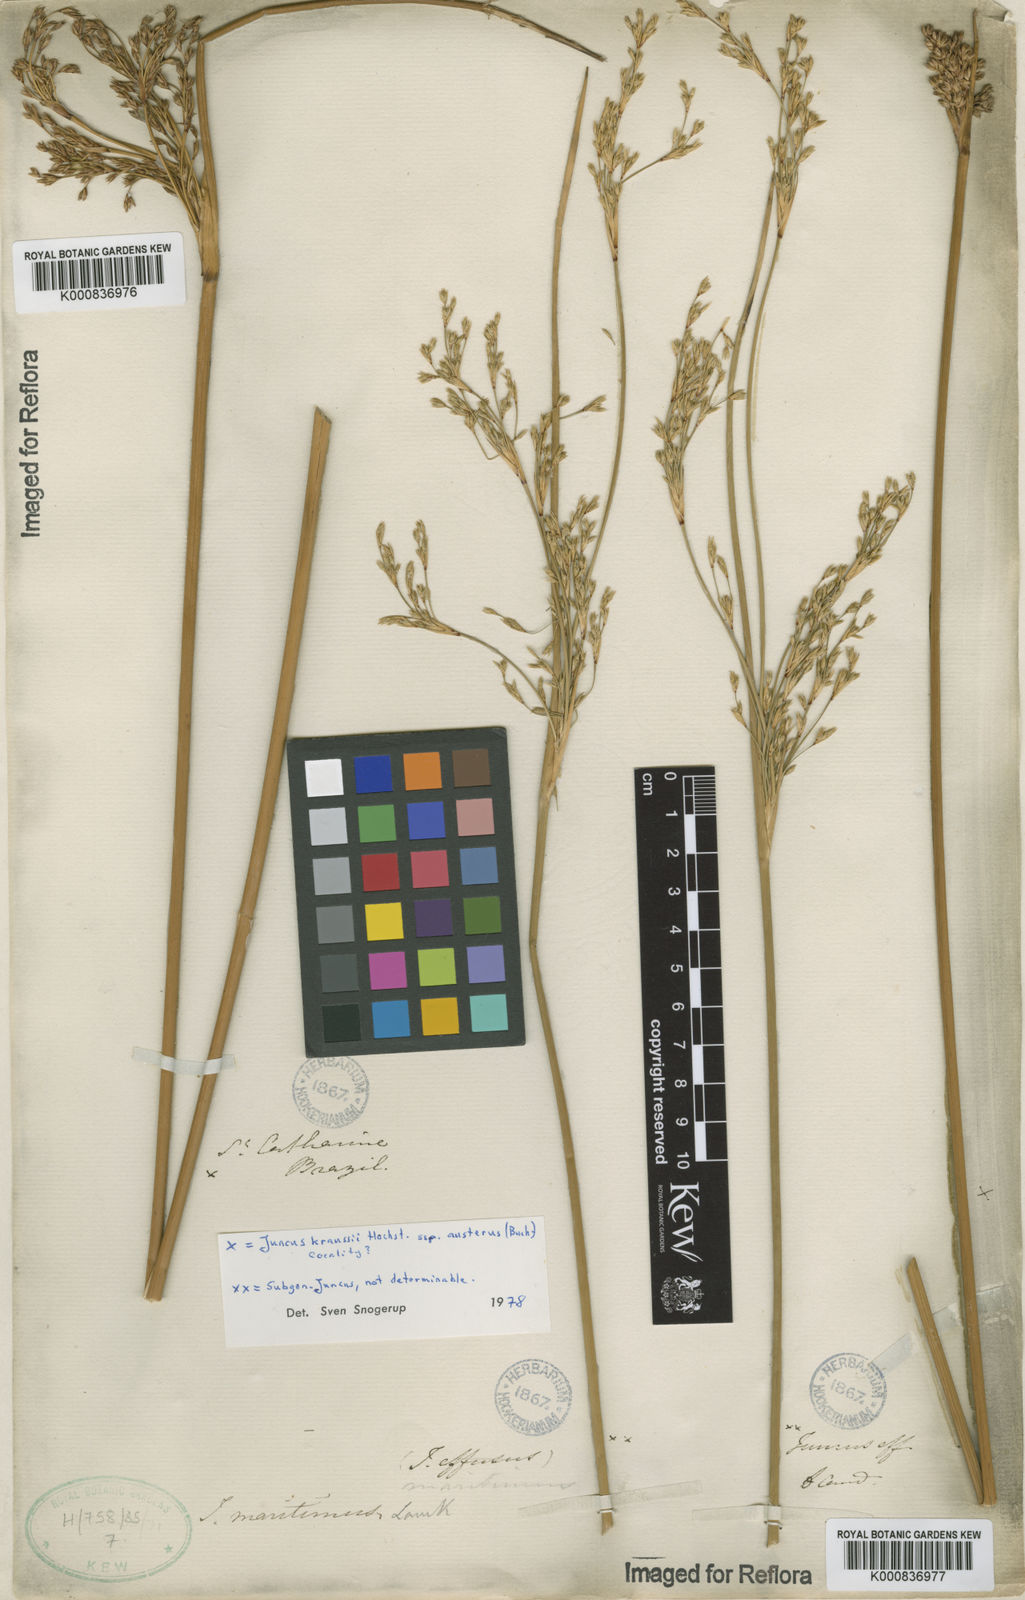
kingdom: Plantae
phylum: Tracheophyta
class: Liliopsida
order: Poales
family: Juncaceae
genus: Juncus
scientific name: Juncus kraussii
